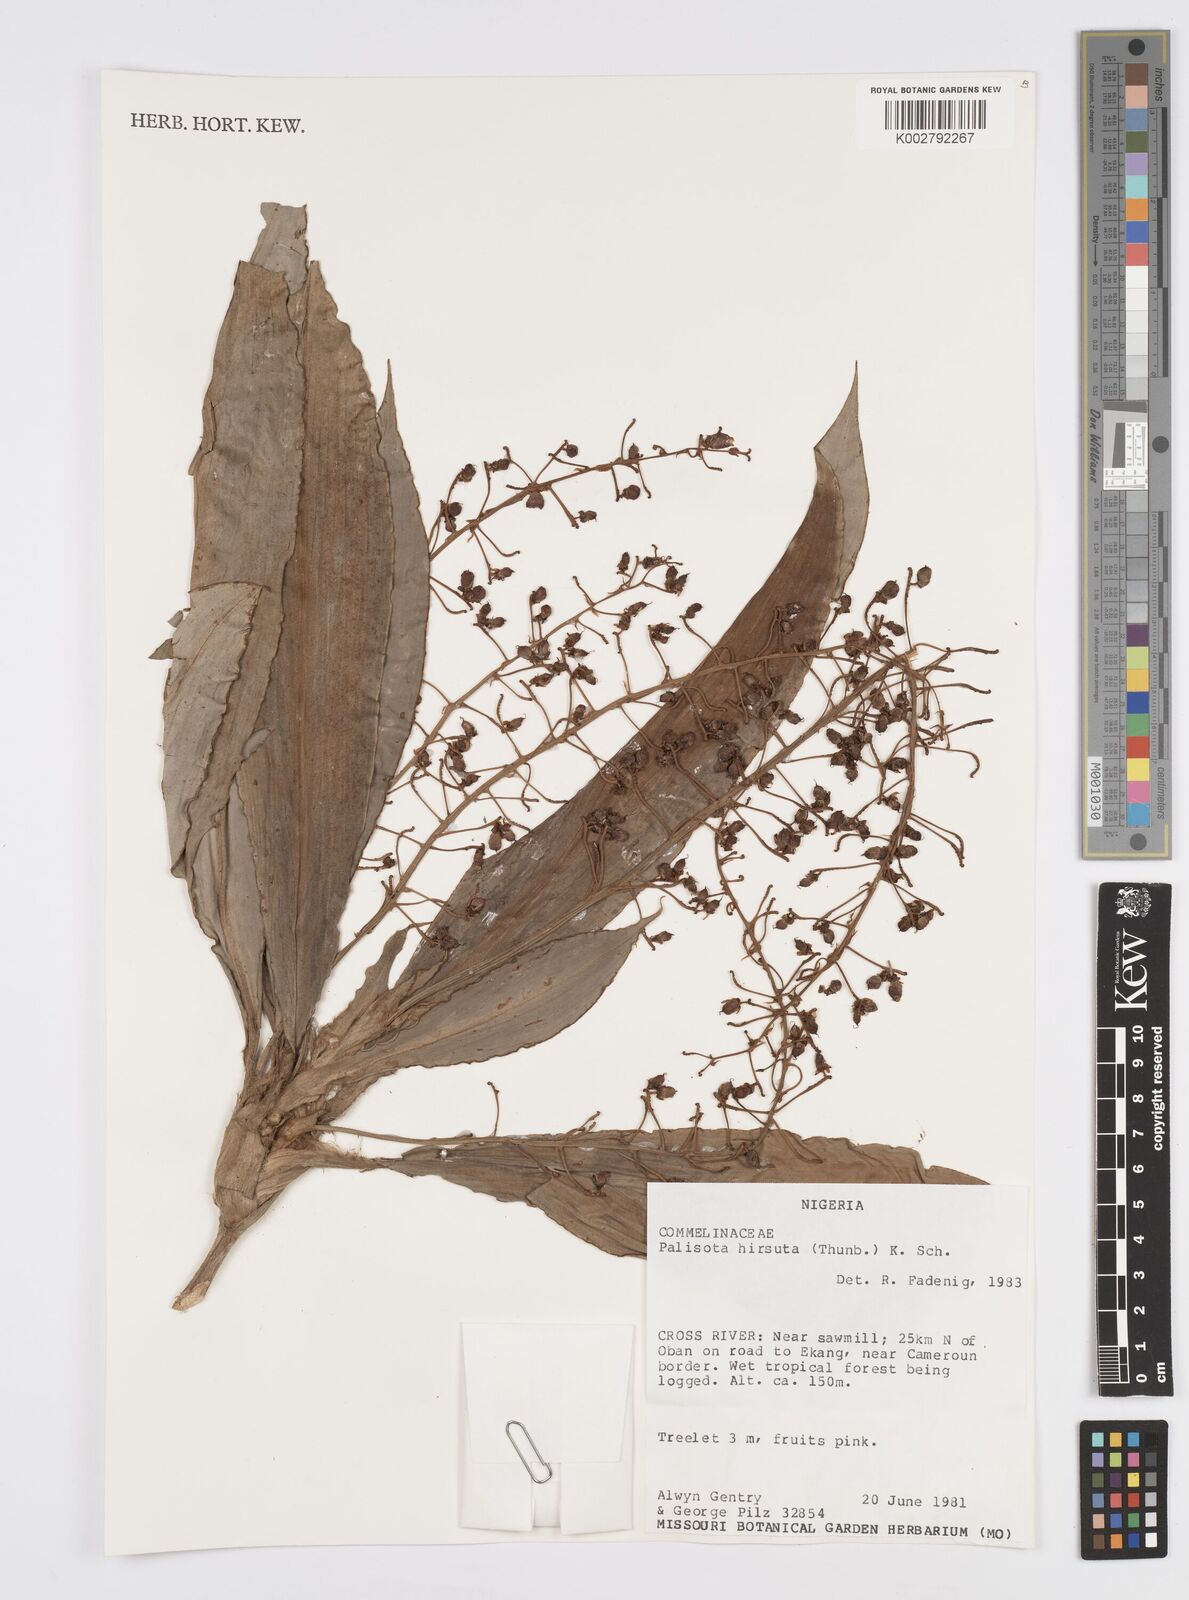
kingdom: Plantae
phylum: Tracheophyta
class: Liliopsida
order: Commelinales
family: Commelinaceae
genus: Palisota
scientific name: Palisota hirsuta
